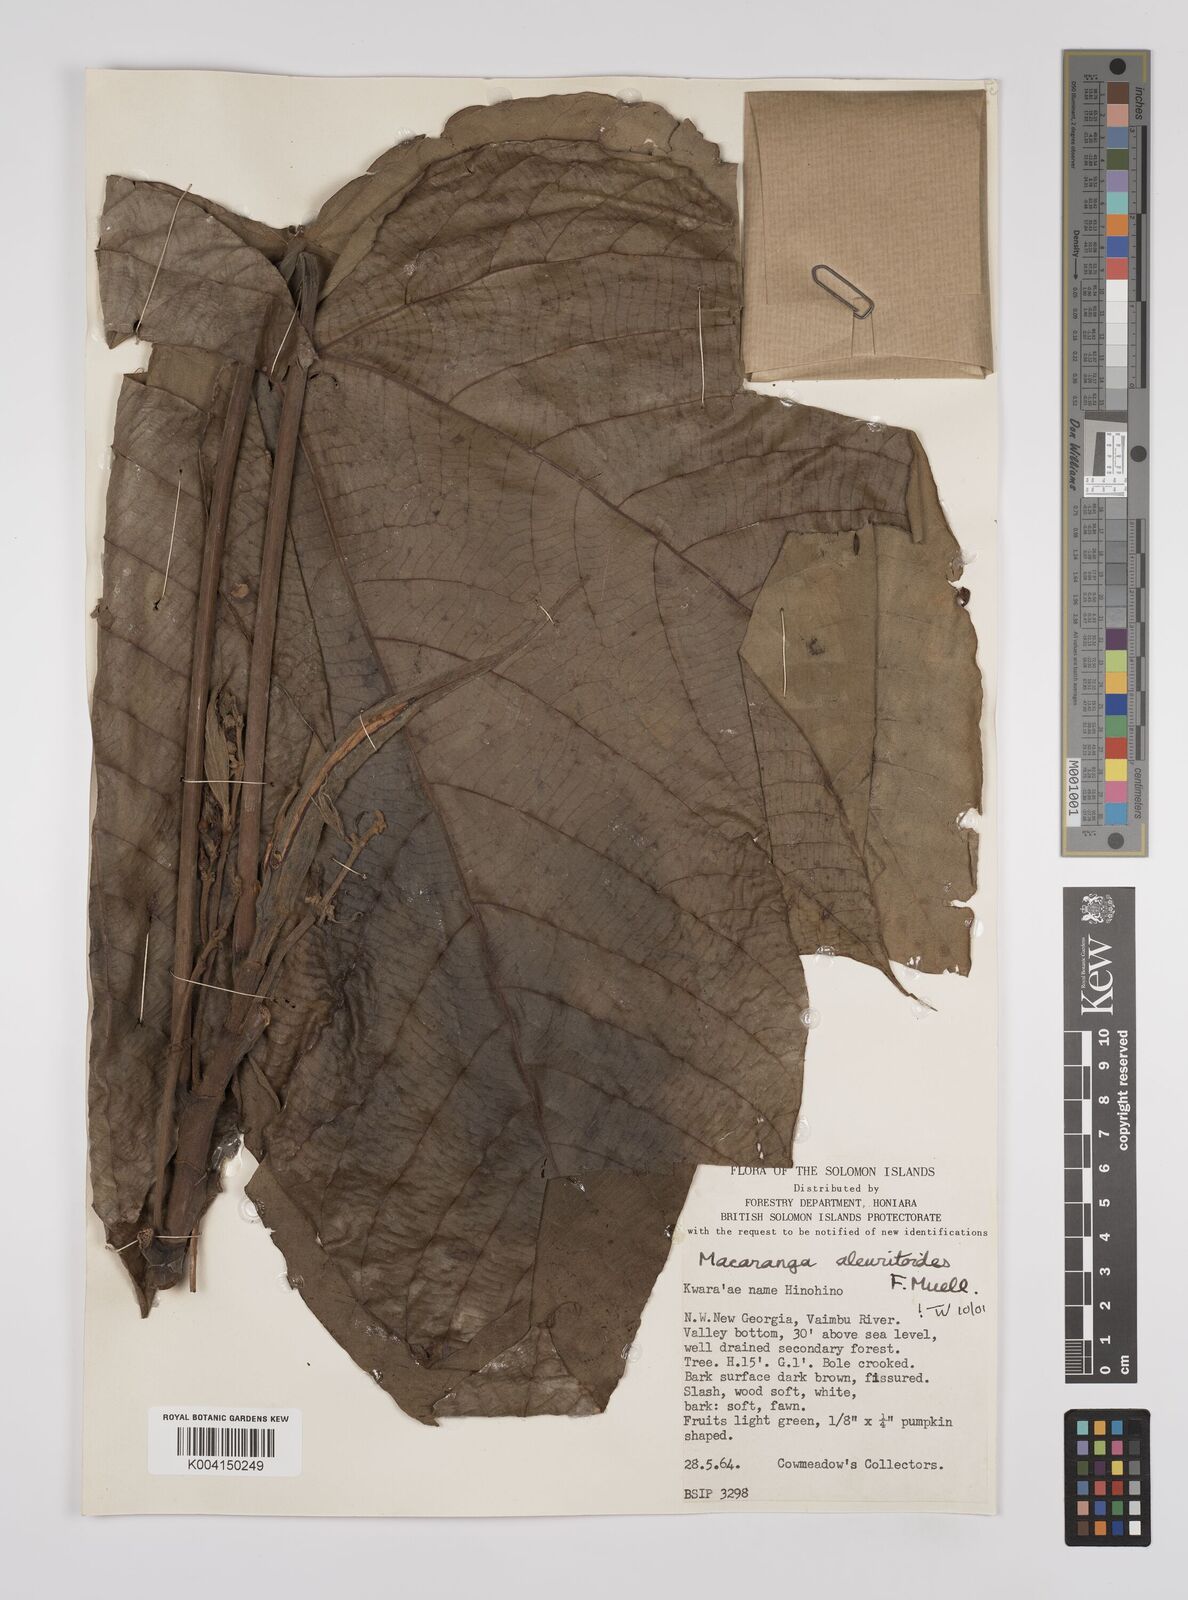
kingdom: Plantae
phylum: Tracheophyta
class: Magnoliopsida
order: Malpighiales
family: Euphorbiaceae
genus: Macaranga
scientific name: Macaranga aleuritoides
